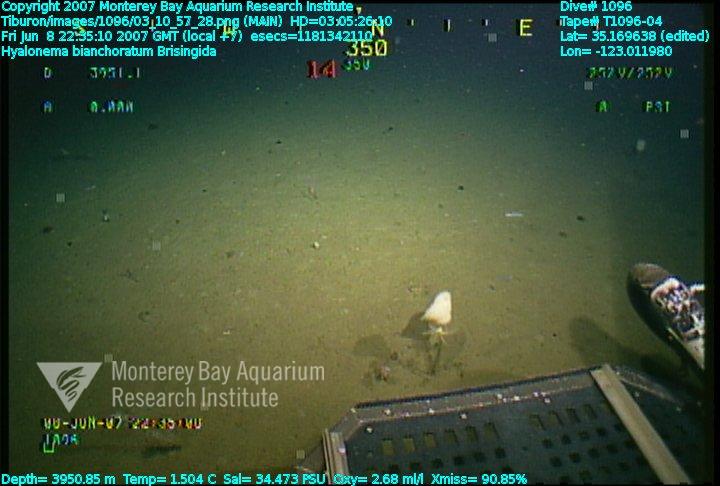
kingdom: Animalia
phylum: Porifera
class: Hexactinellida
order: Amphidiscosida
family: Hyalonematidae
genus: Hyalonema
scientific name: Hyalonema bianchoratum
